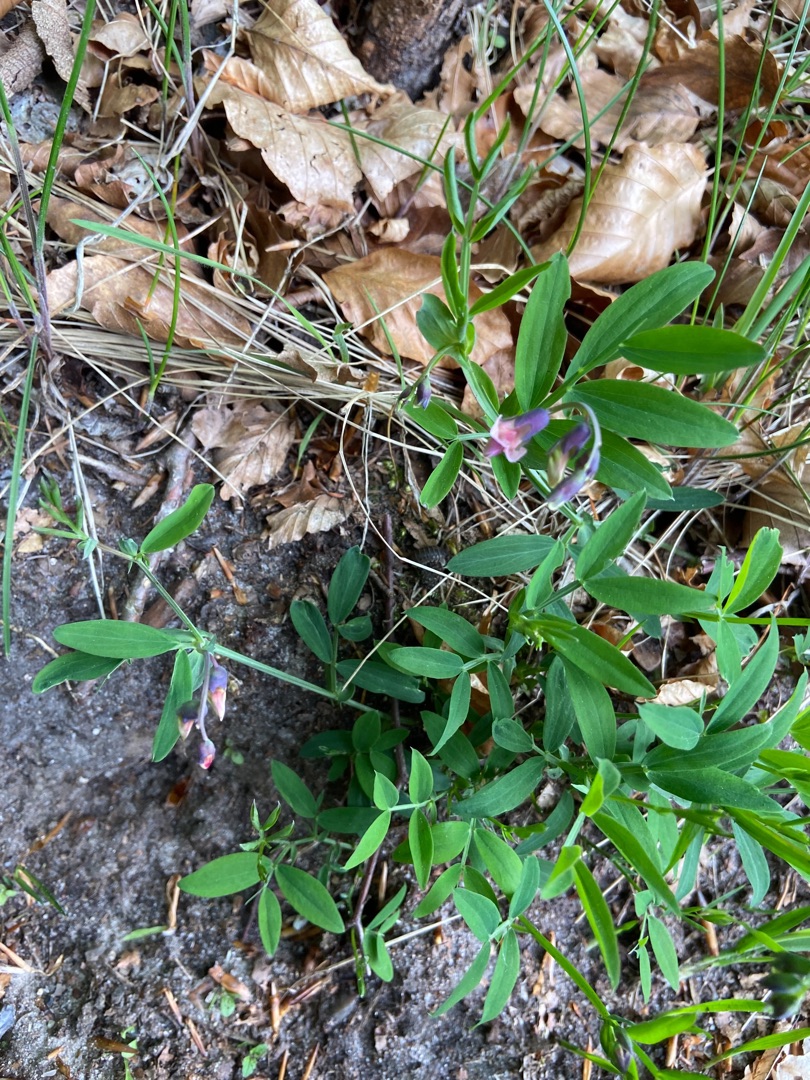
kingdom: Plantae
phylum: Tracheophyta
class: Magnoliopsida
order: Fabales
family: Fabaceae
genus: Lathyrus
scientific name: Lathyrus linifolius
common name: Krat-fladbælg
